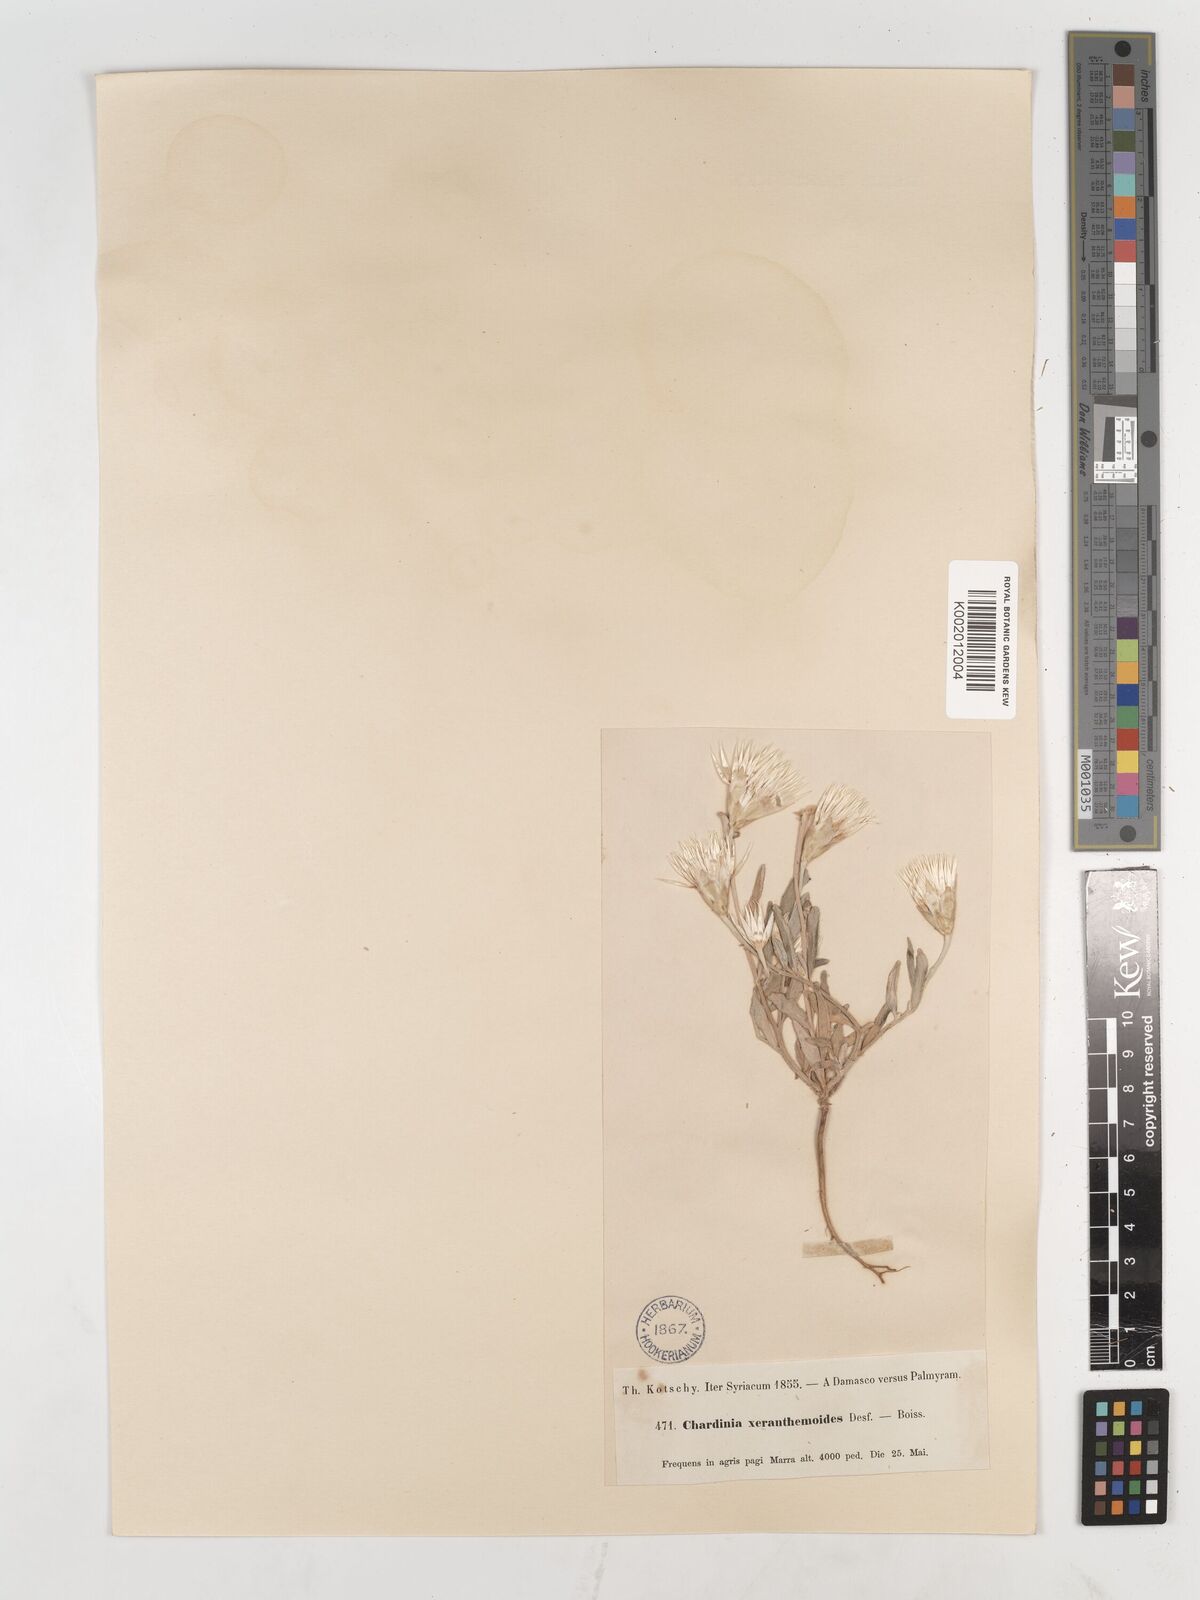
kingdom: Plantae
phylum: Tracheophyta
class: Magnoliopsida
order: Asterales
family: Asteraceae
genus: Chardinia
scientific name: Chardinia orientalis
